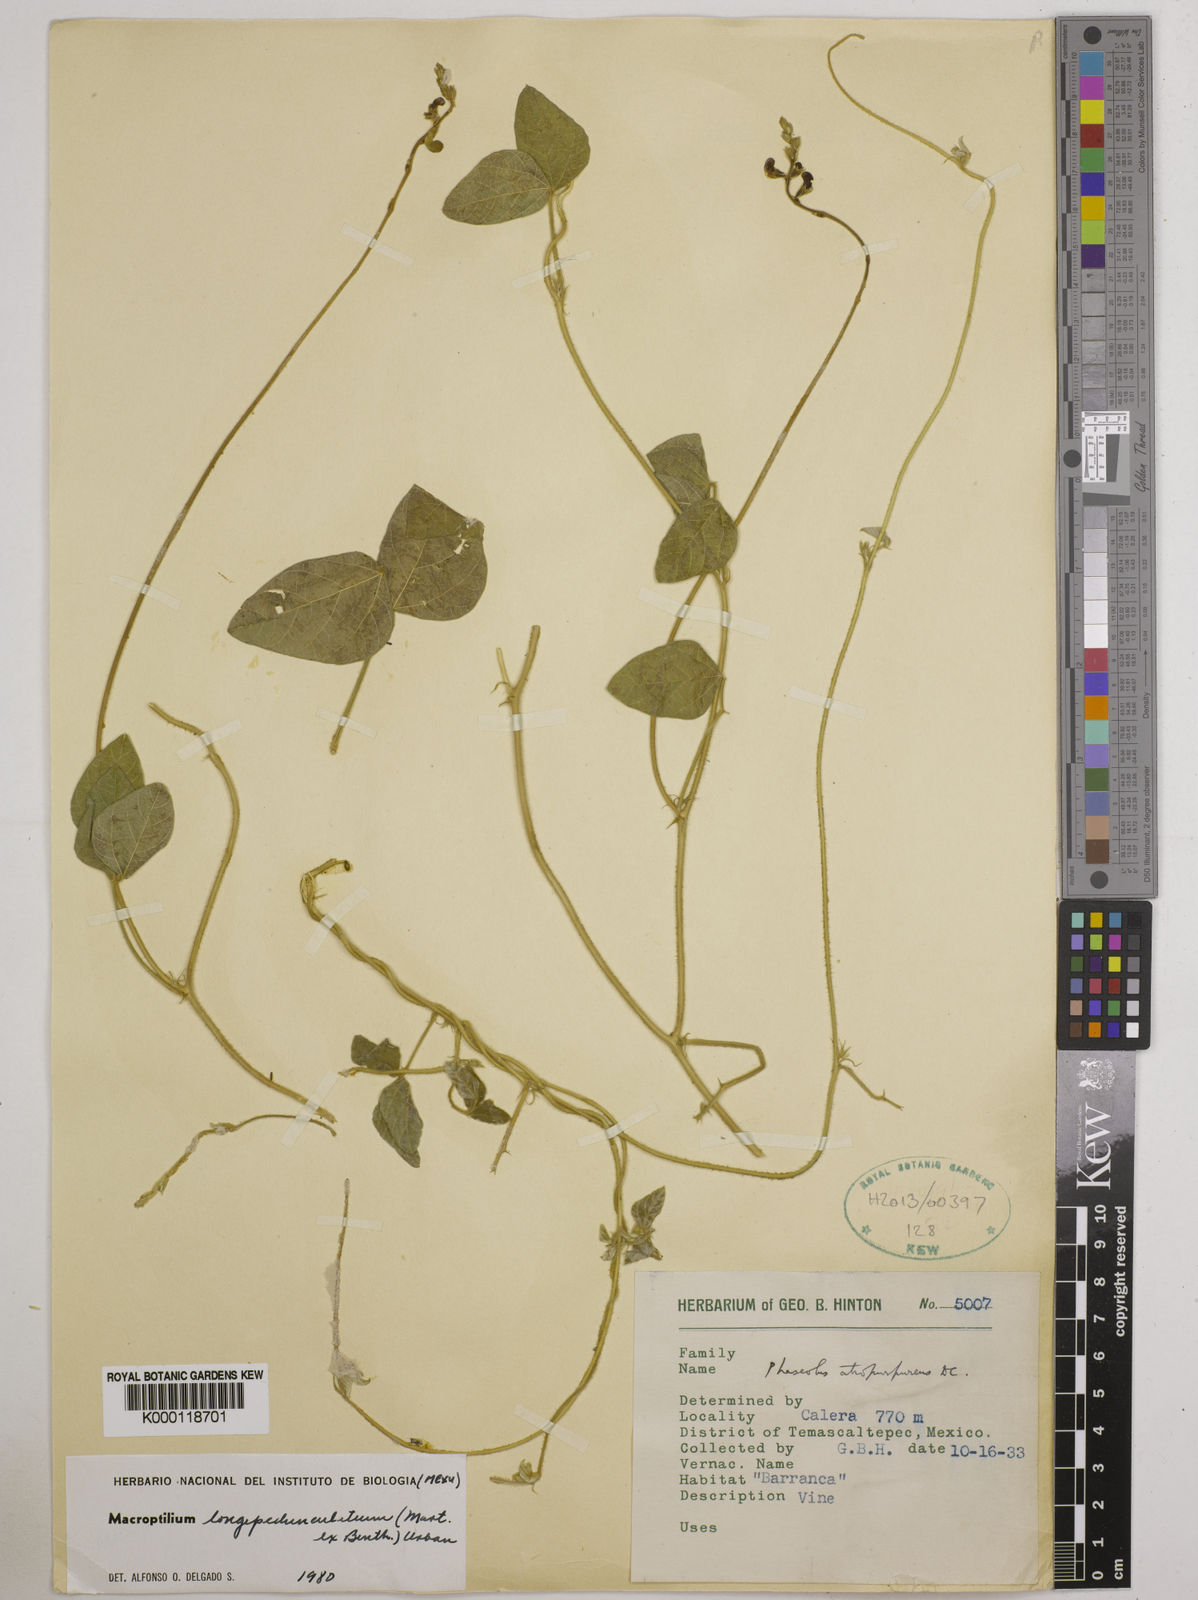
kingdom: Plantae
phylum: Tracheophyta
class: Magnoliopsida
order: Fabales
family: Fabaceae
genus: Macroptilium
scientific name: Macroptilium longepedunculatum
